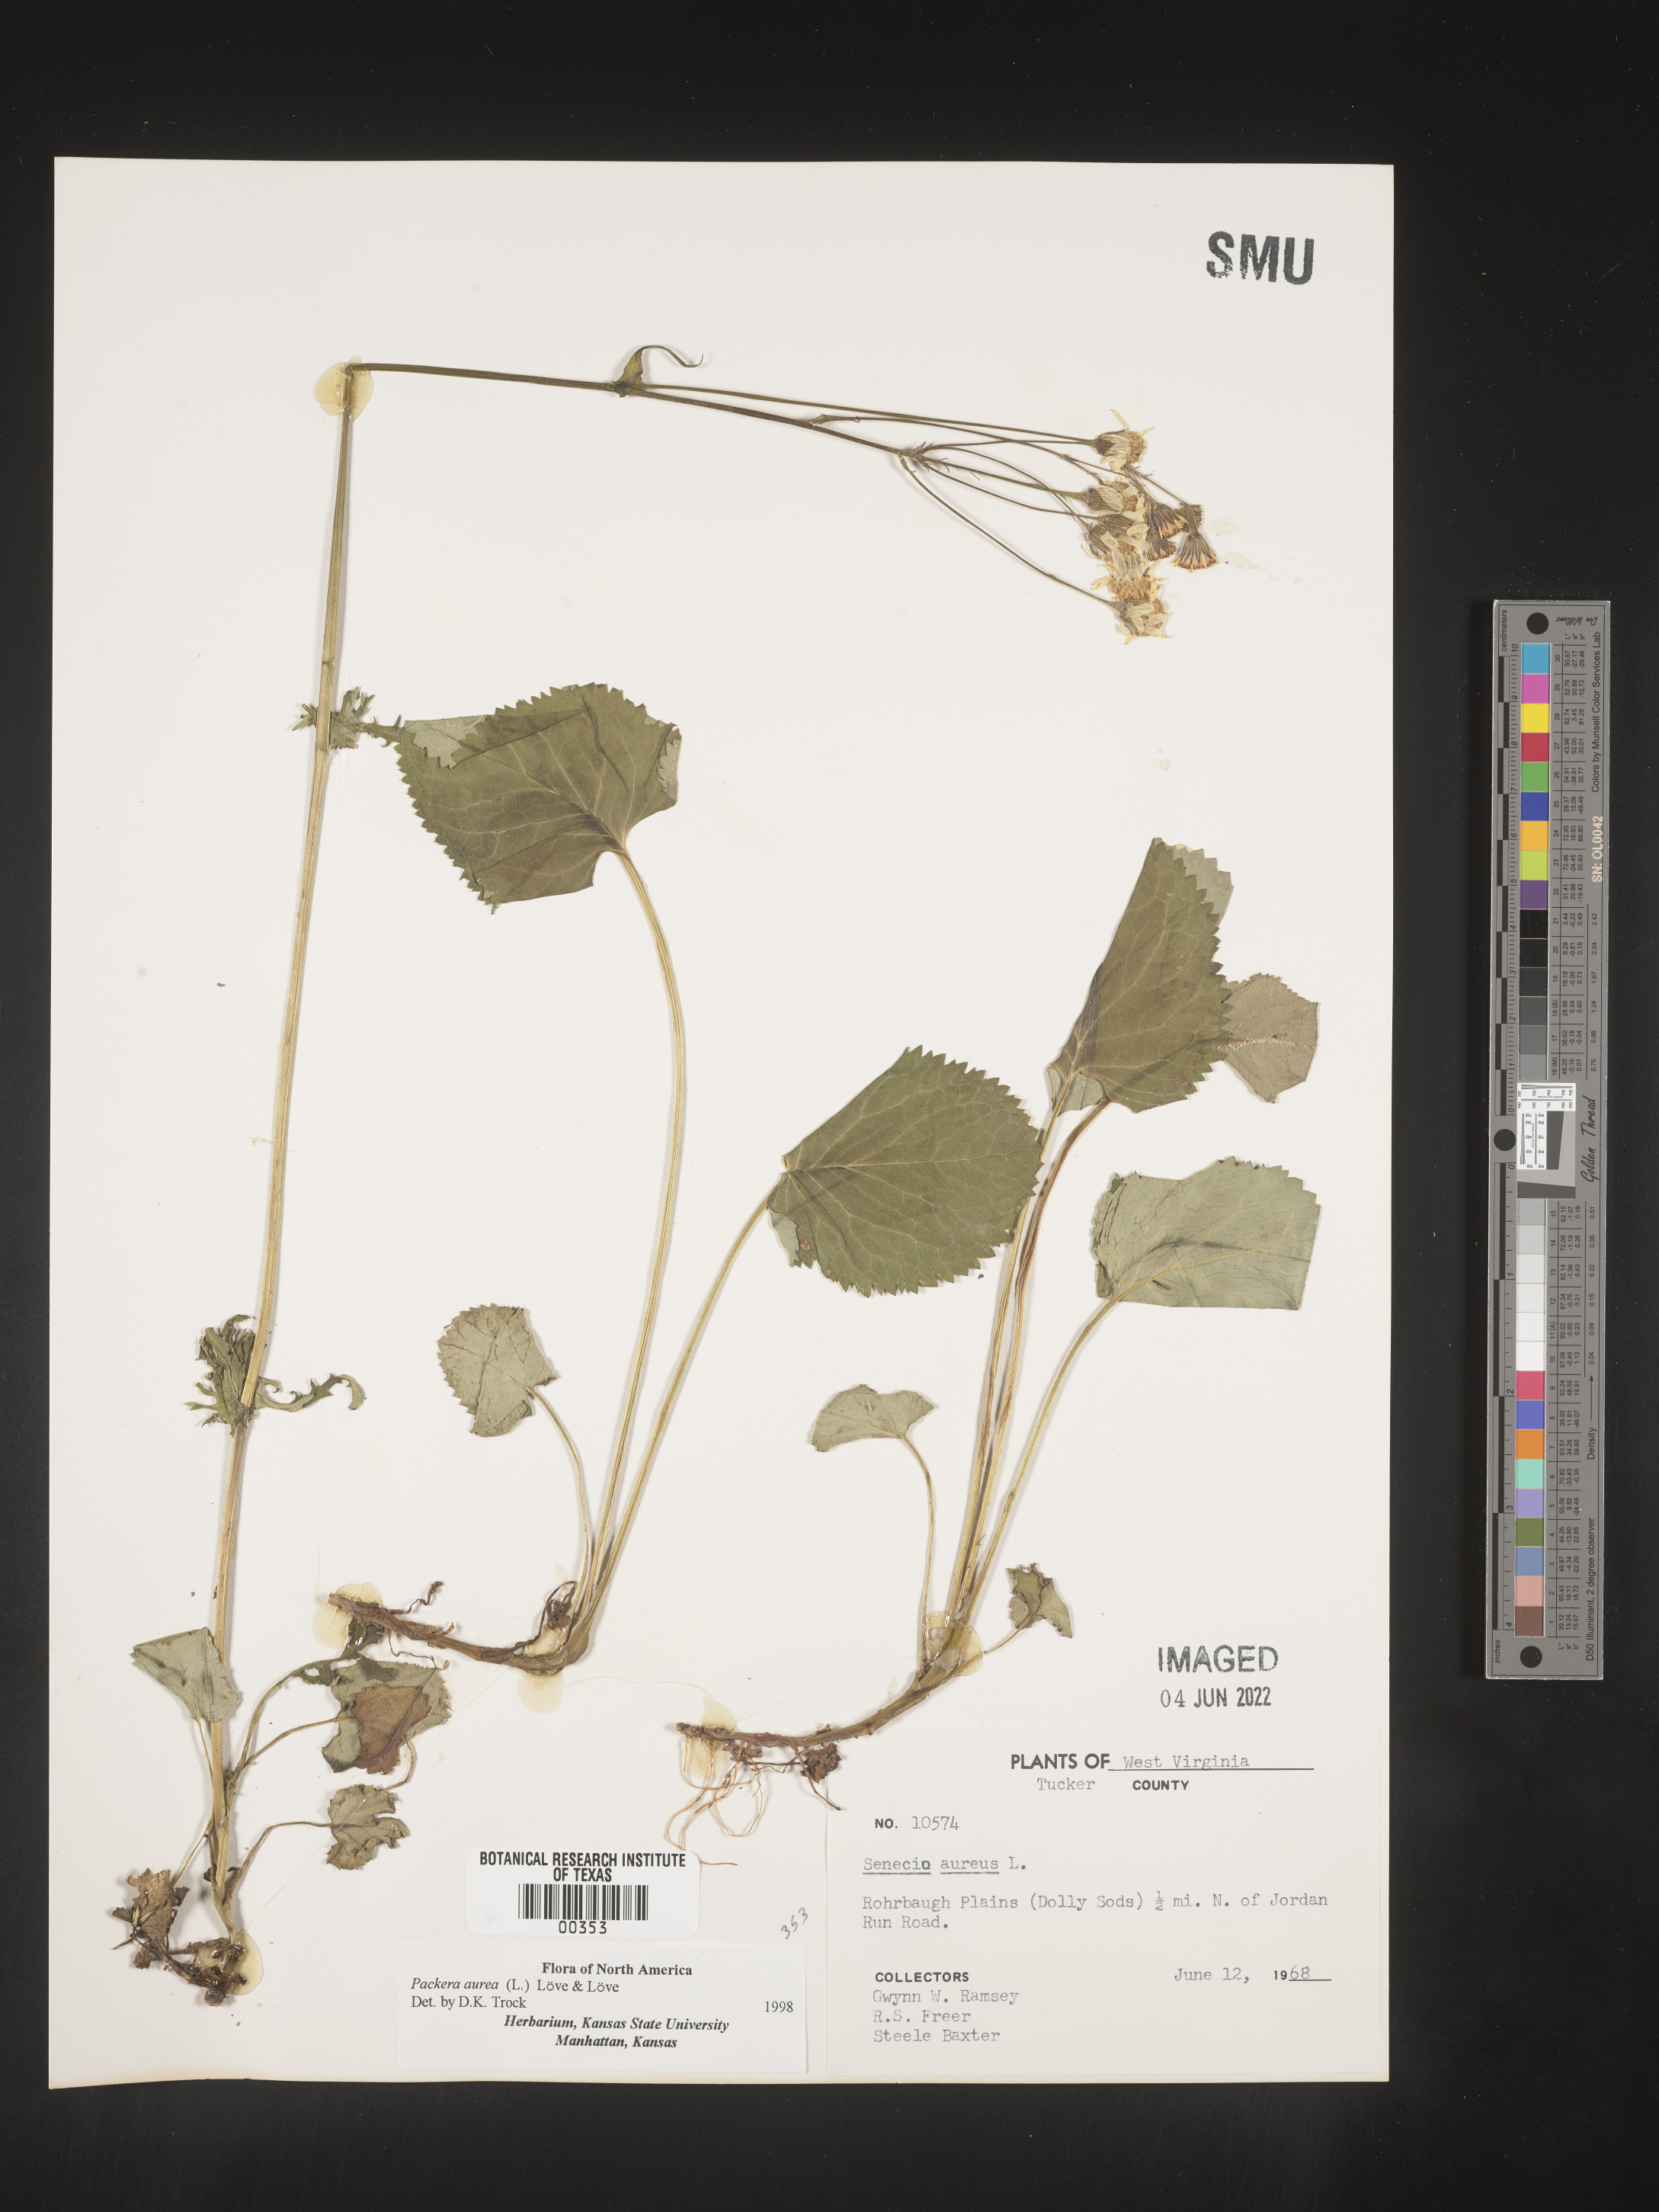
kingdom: Plantae
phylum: Tracheophyta
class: Magnoliopsida
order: Asterales
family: Asteraceae
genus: Packera
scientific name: Packera aurea
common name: Golden groundsel
